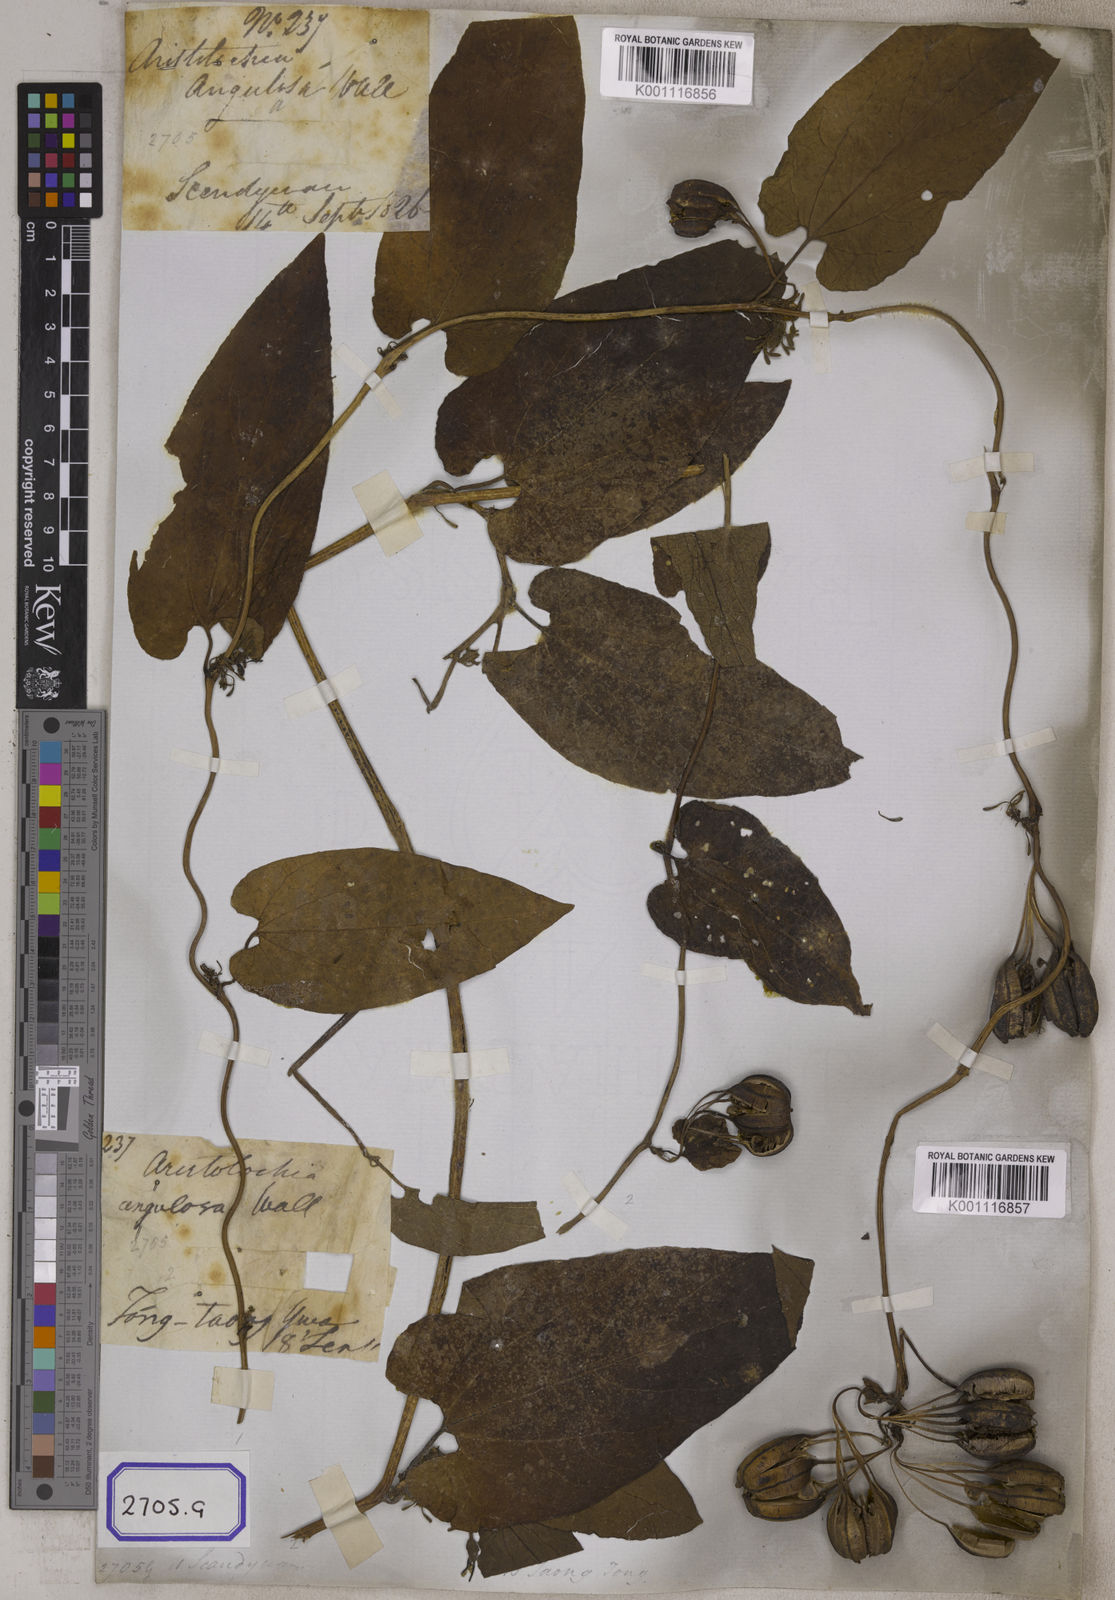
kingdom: Plantae
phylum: Tracheophyta
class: Magnoliopsida
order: Piperales
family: Aristolochiaceae
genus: Aristolochia
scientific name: Aristolochia acuminata
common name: Indian birthwort
